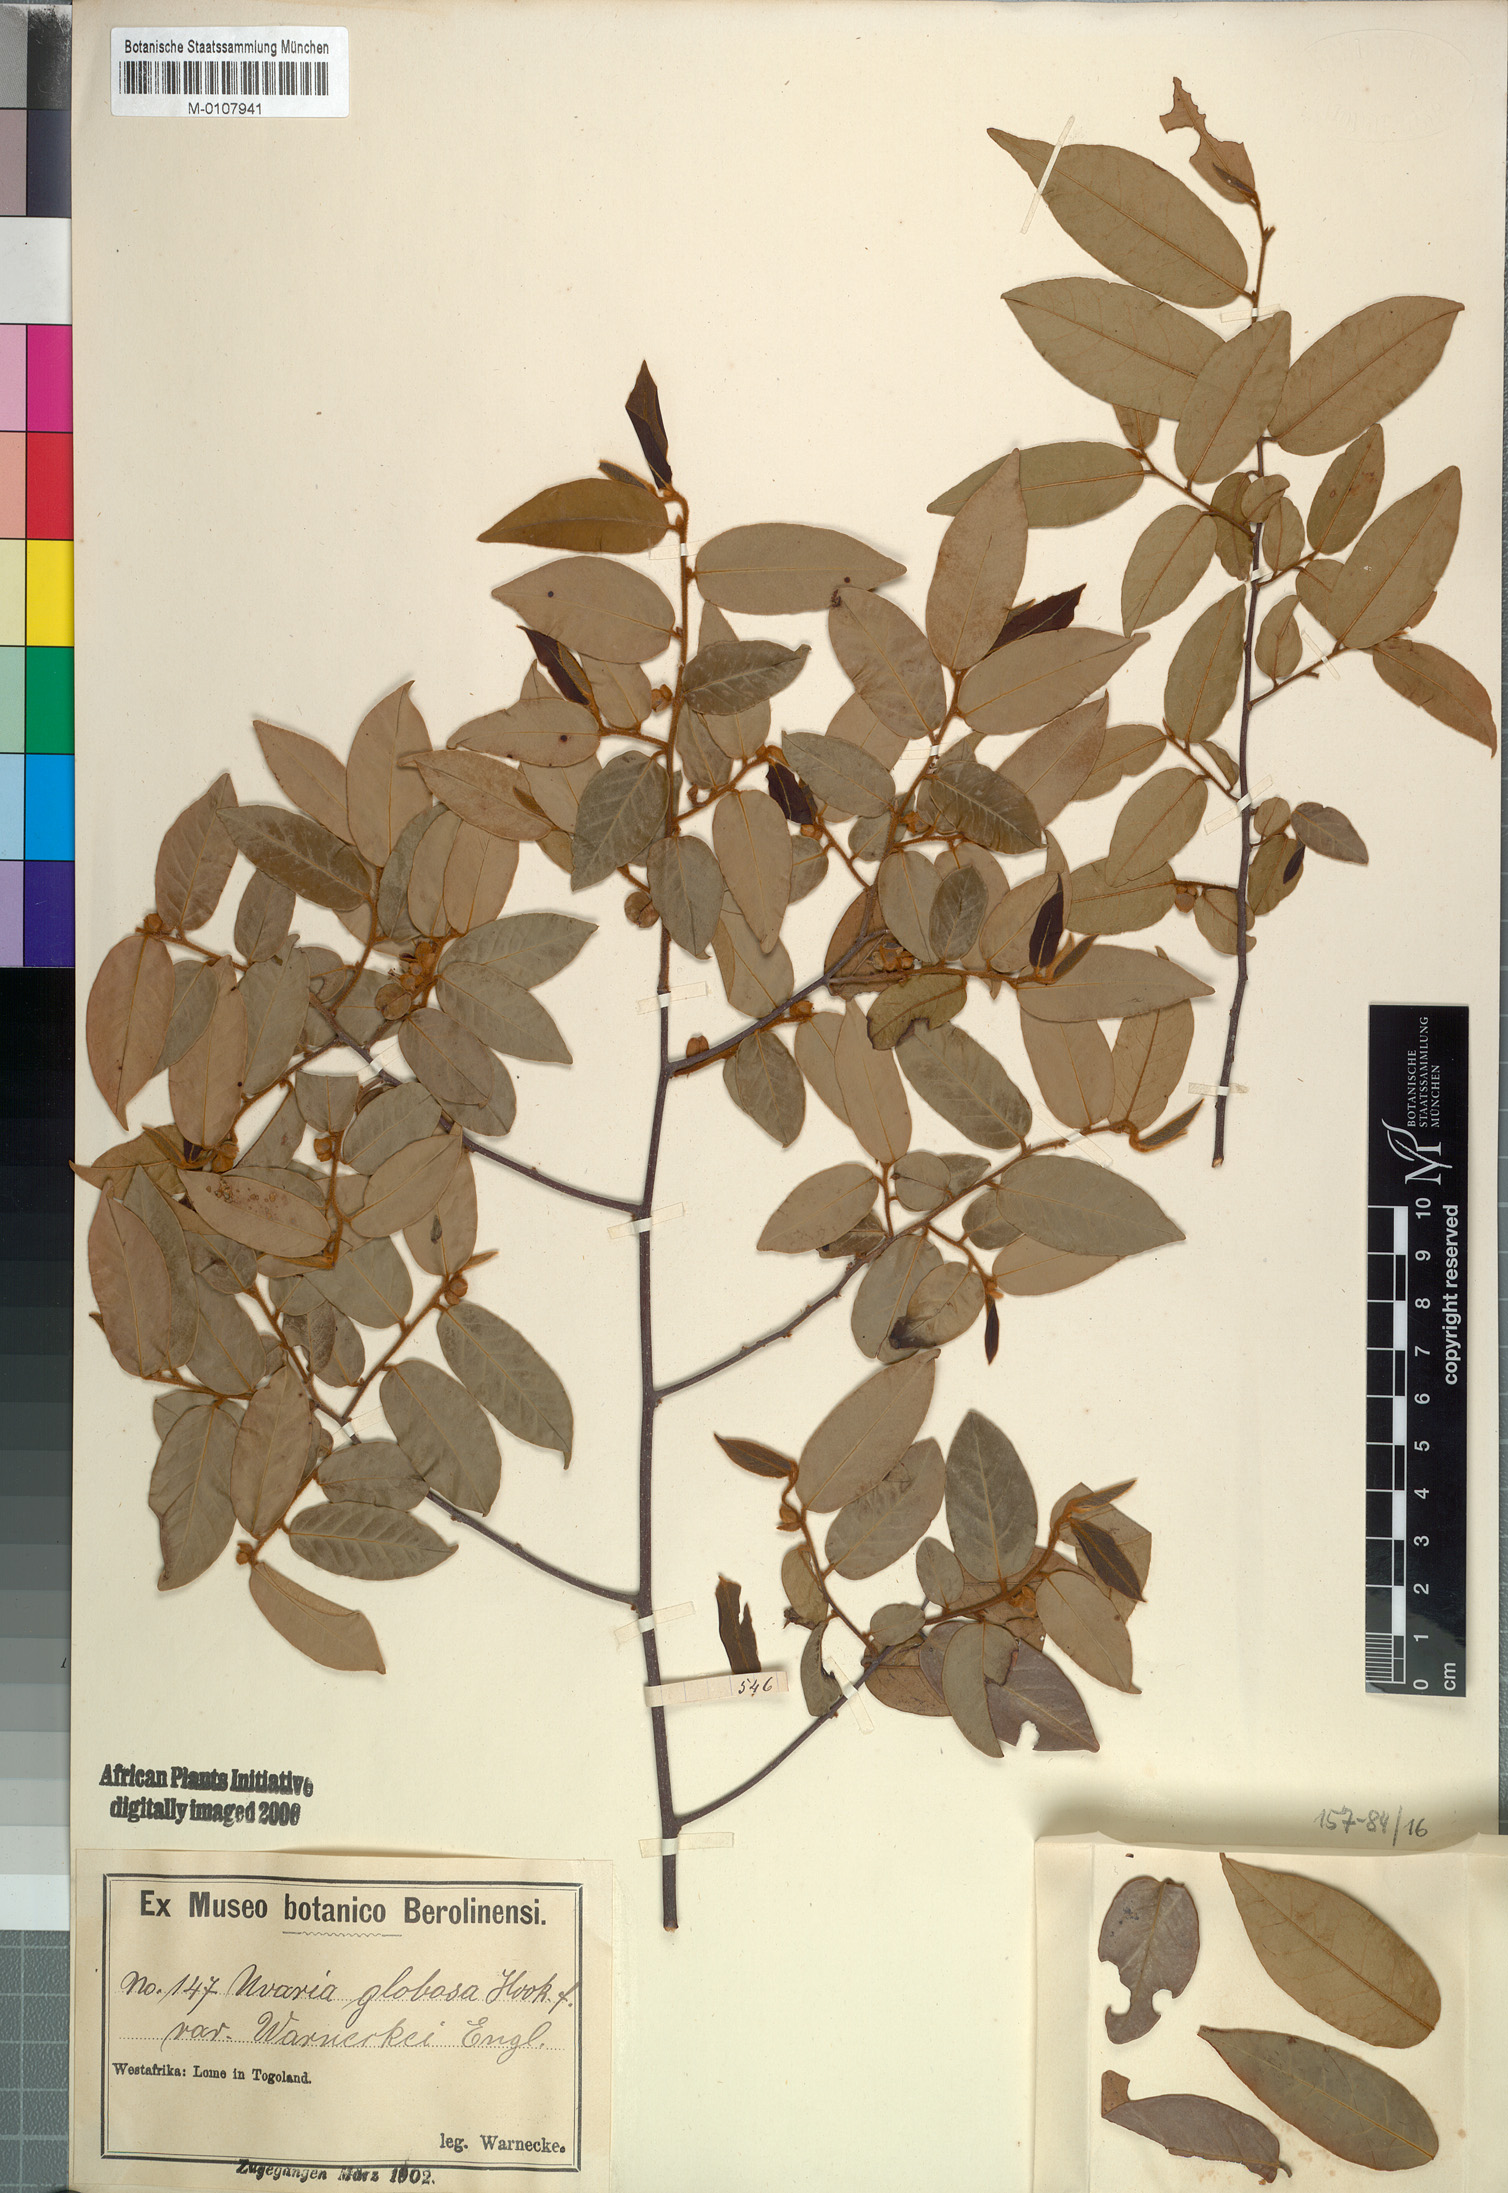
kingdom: Plantae
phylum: Tracheophyta
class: Magnoliopsida
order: Magnoliales
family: Annonaceae
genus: Uvaria
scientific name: Uvaria ovata
